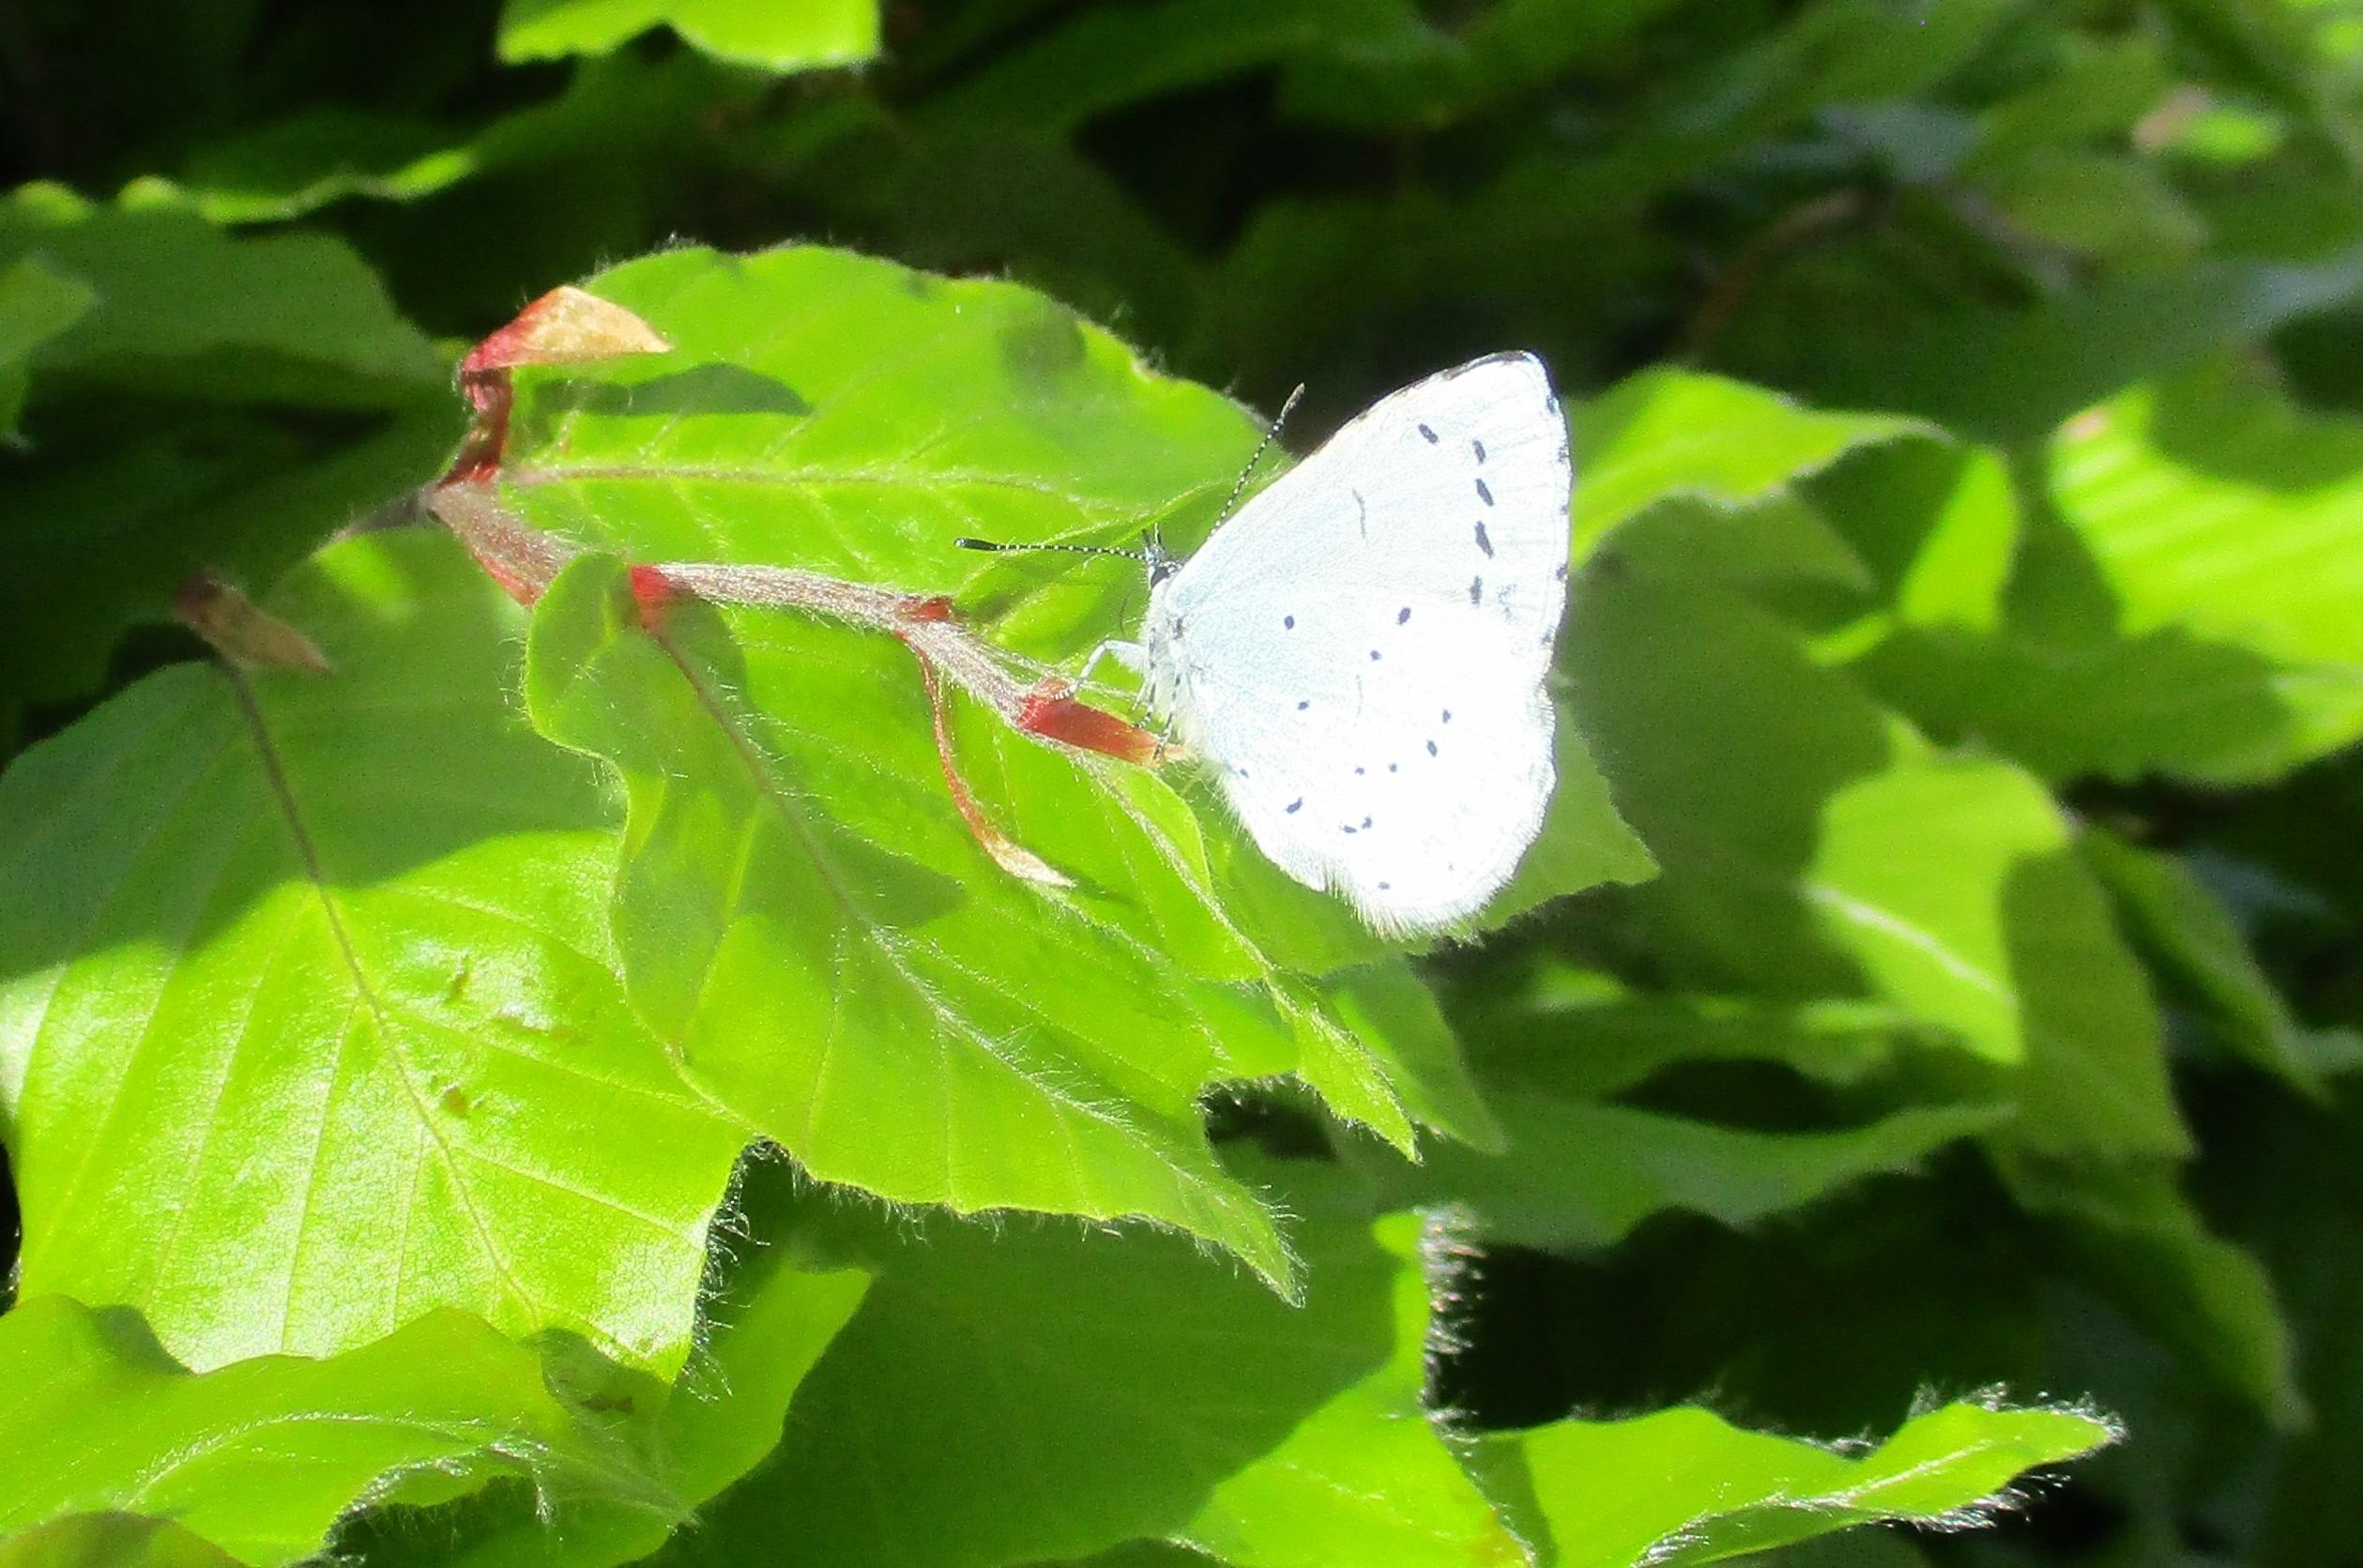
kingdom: Animalia
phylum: Arthropoda
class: Insecta
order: Lepidoptera
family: Lycaenidae
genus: Celastrina
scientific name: Celastrina argiolus
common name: Skovblåfugl
